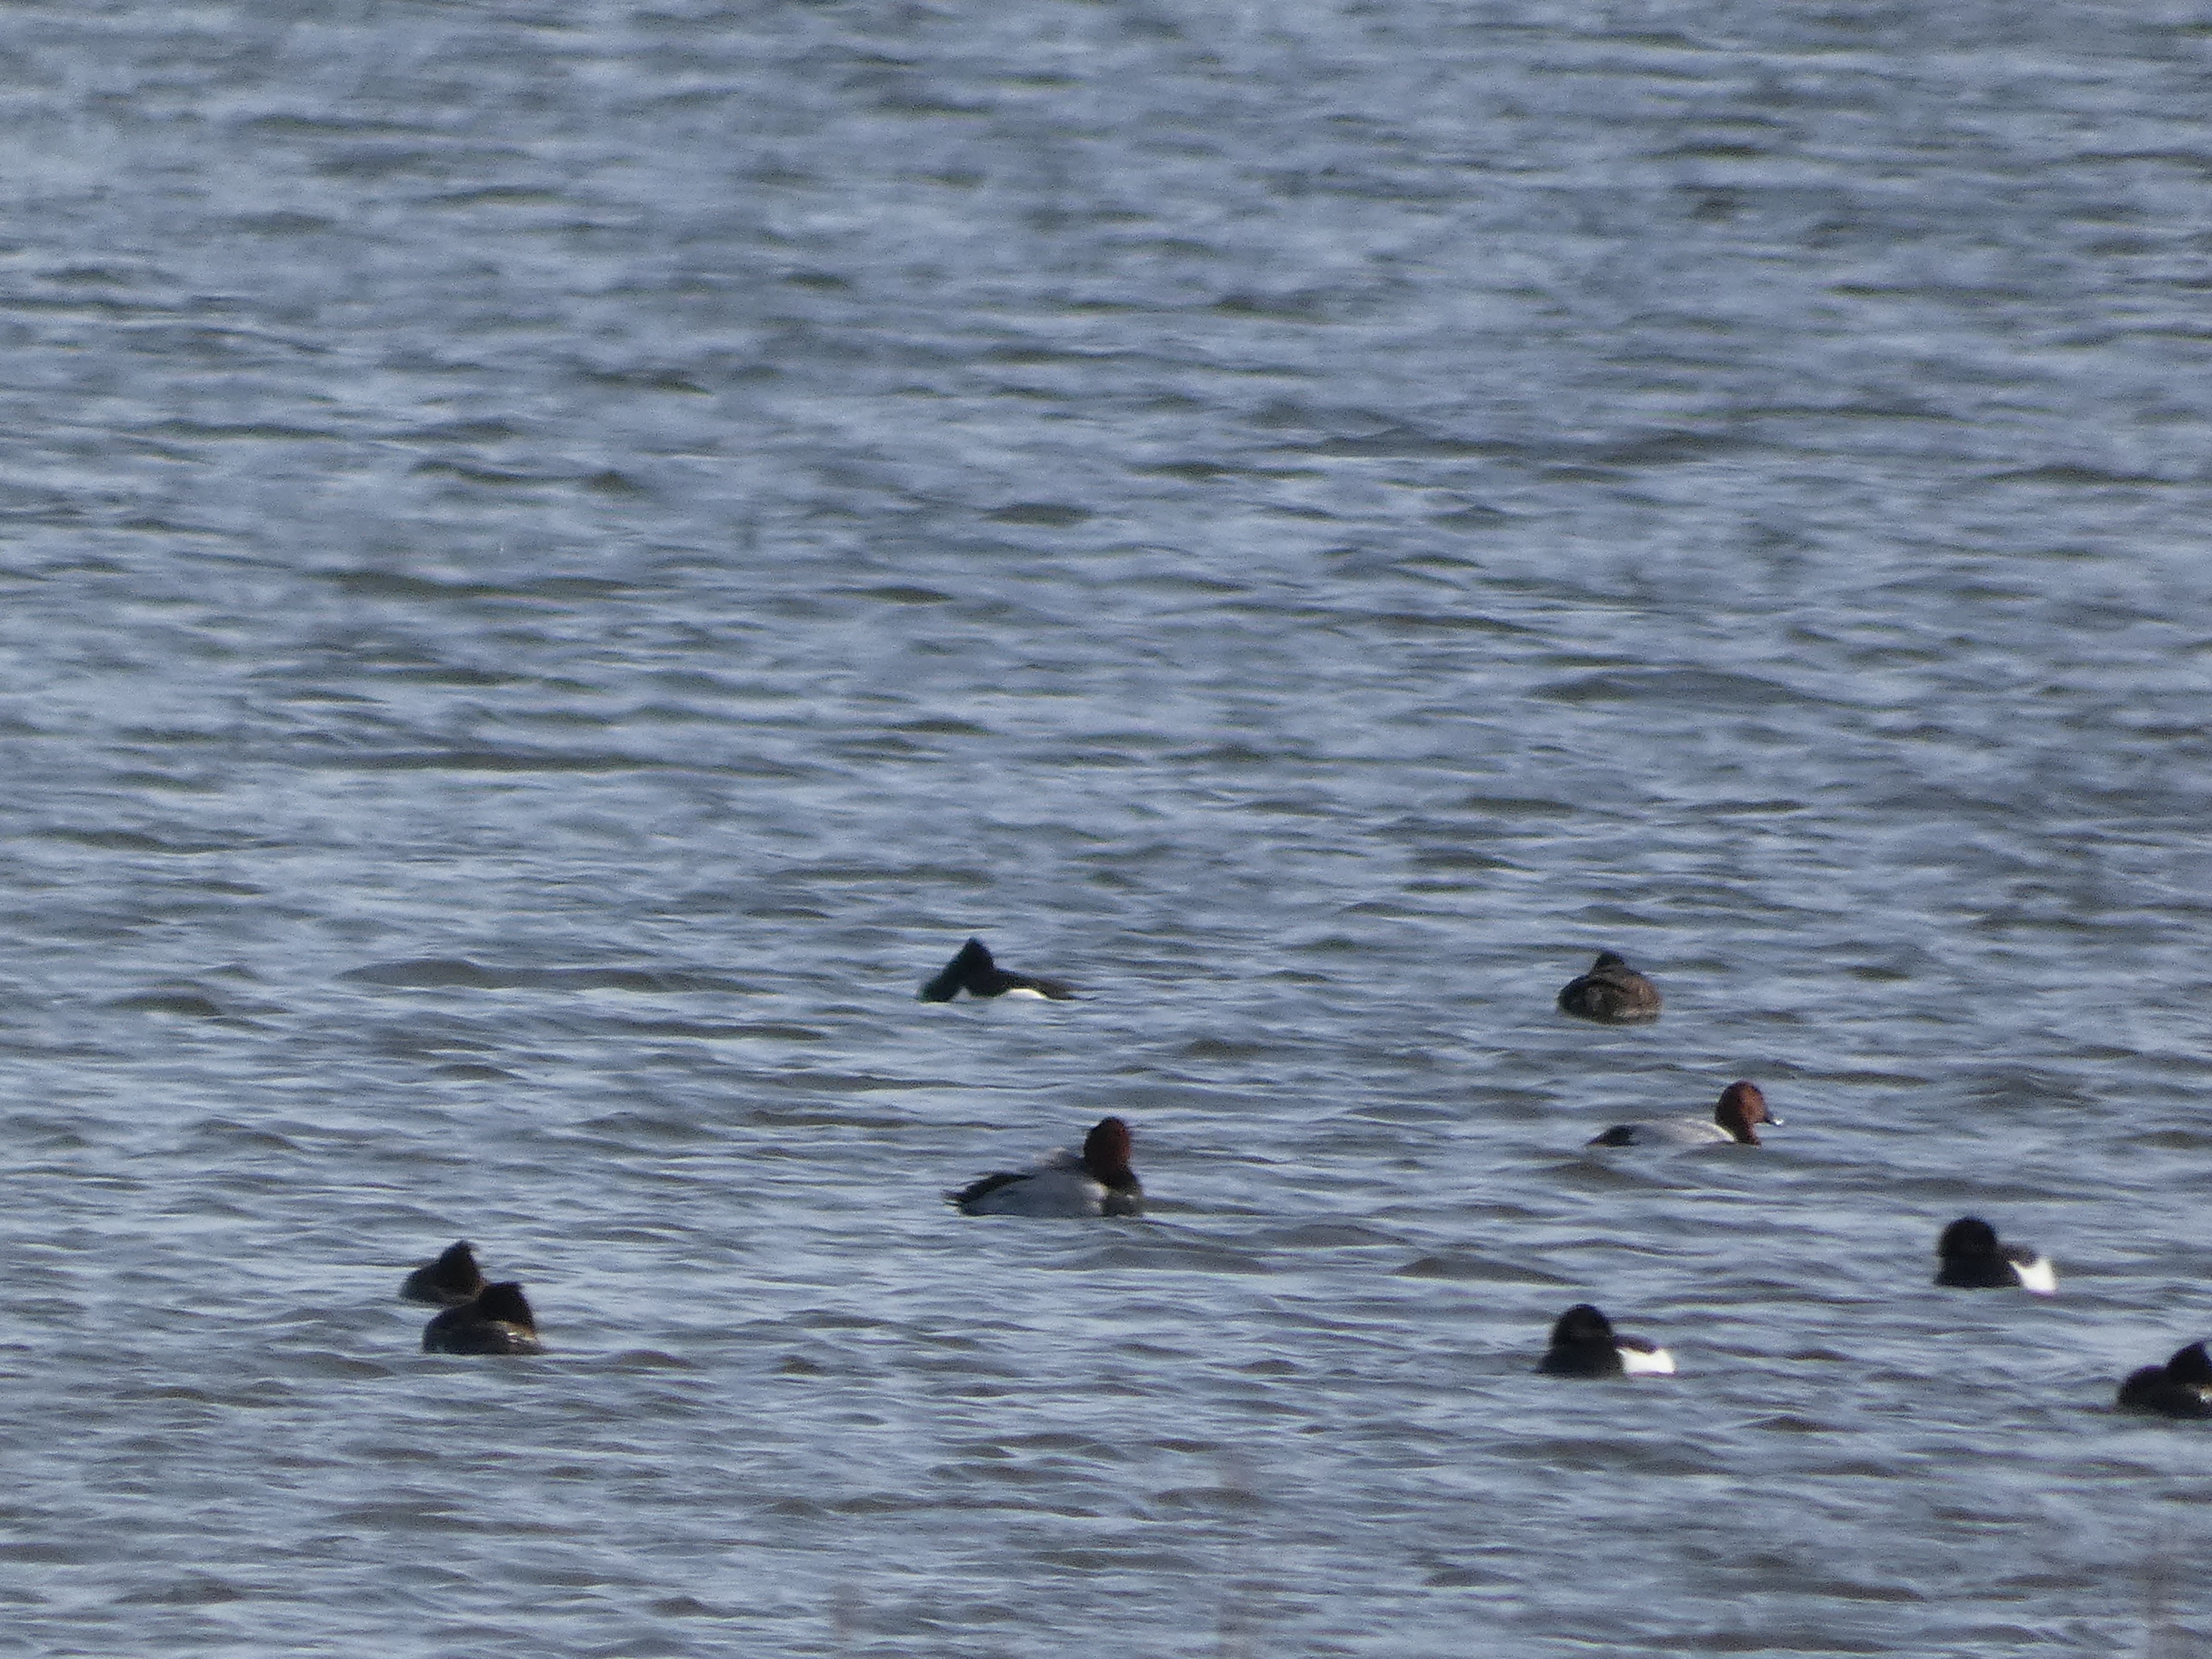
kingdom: Animalia
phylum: Chordata
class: Aves
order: Anseriformes
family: Anatidae
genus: Aythya
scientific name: Aythya ferina
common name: Taffeland
